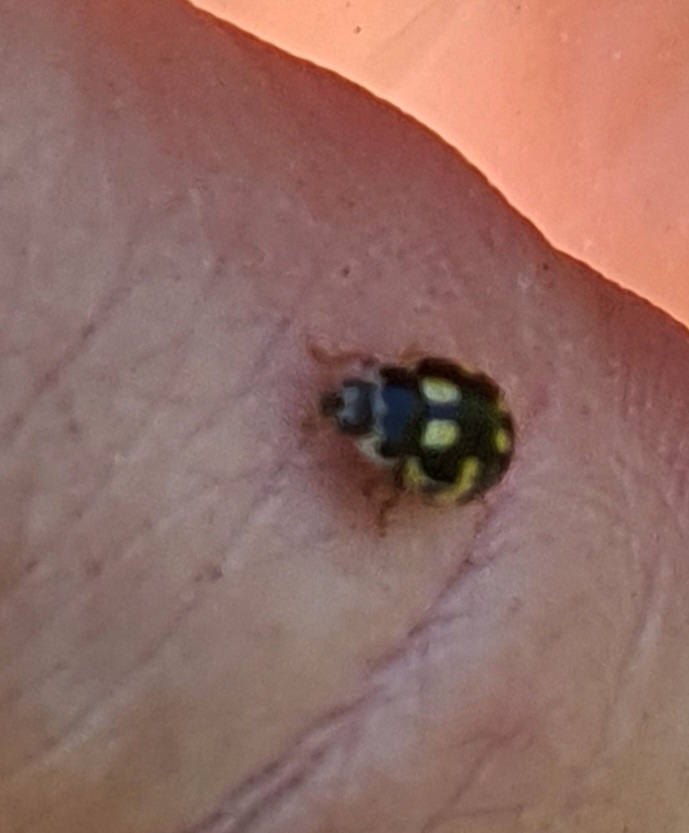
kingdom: Animalia
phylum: Arthropoda
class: Insecta
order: Coleoptera
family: Coccinellidae
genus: Propylaea
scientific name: Propylaea quatuordecimpunctata
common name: Skakbræt
